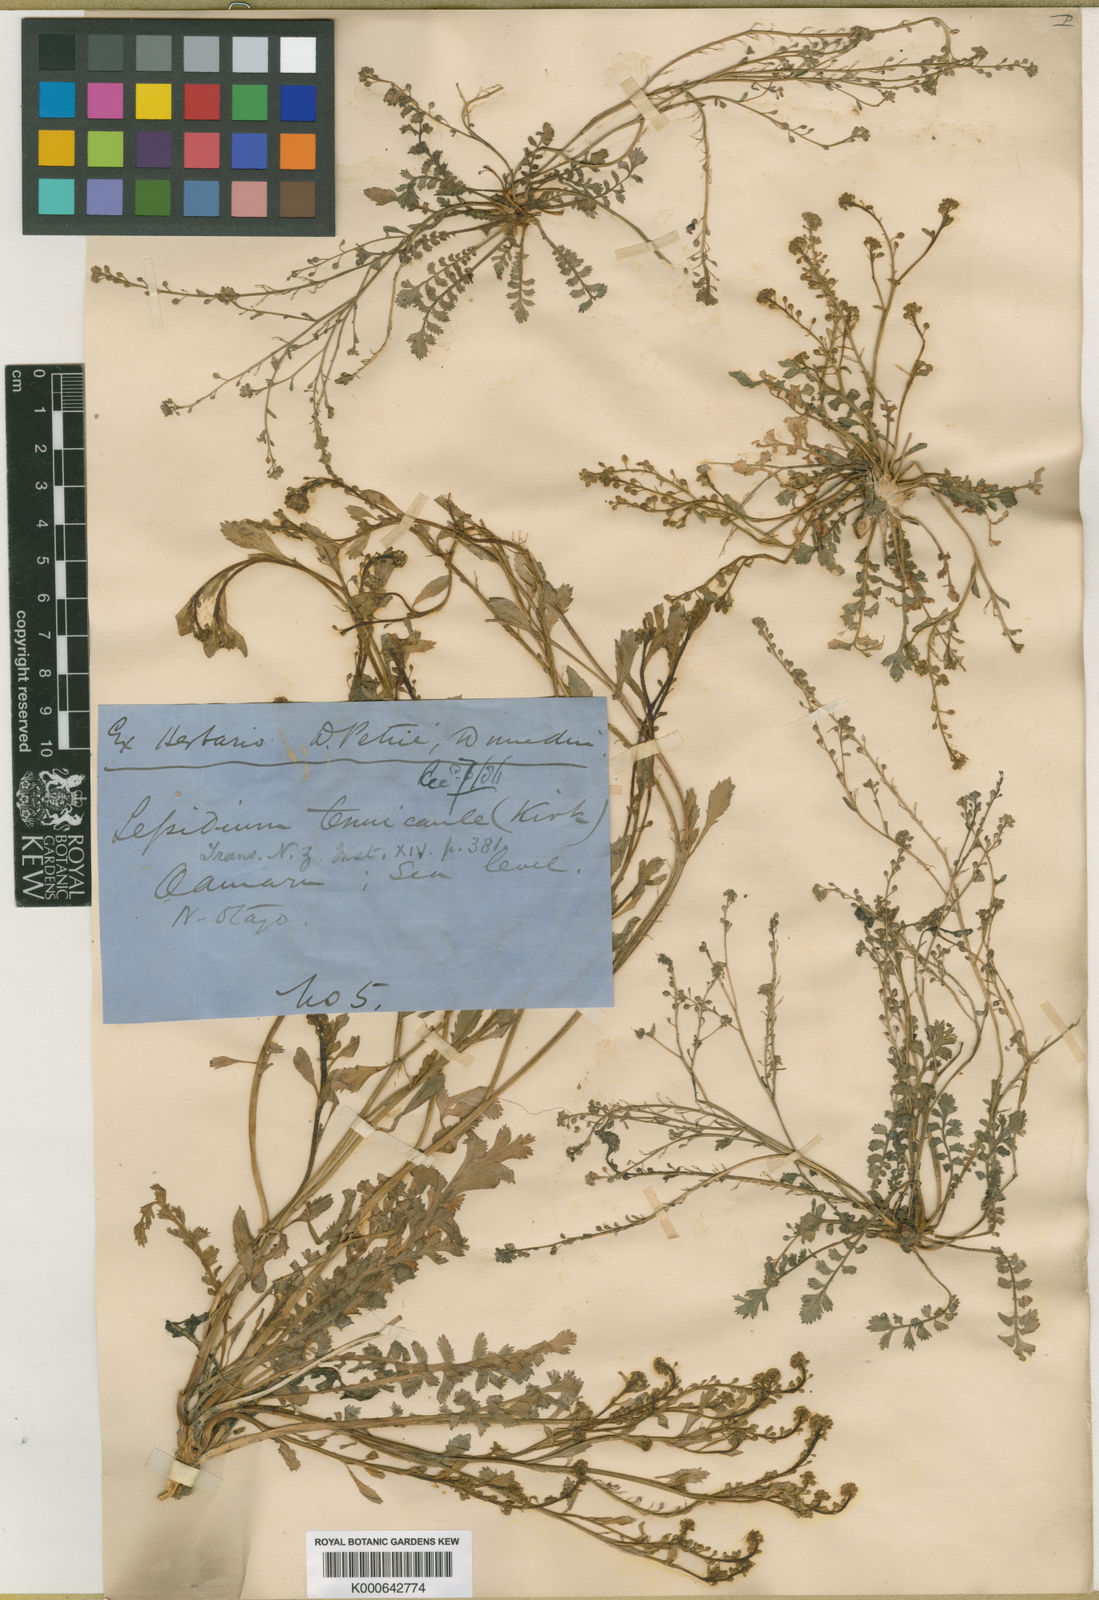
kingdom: Plantae
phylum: Tracheophyta
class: Magnoliopsida
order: Brassicales
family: Brassicaceae
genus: Lepidium
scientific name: Lepidium tenuicaule
